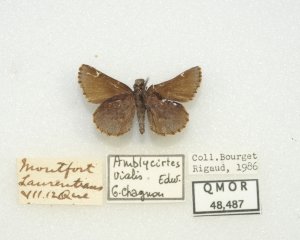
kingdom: Animalia
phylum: Arthropoda
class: Insecta
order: Lepidoptera
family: Hesperiidae
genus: Mastor
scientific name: Mastor vialis
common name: Common Roadside-Skipper
